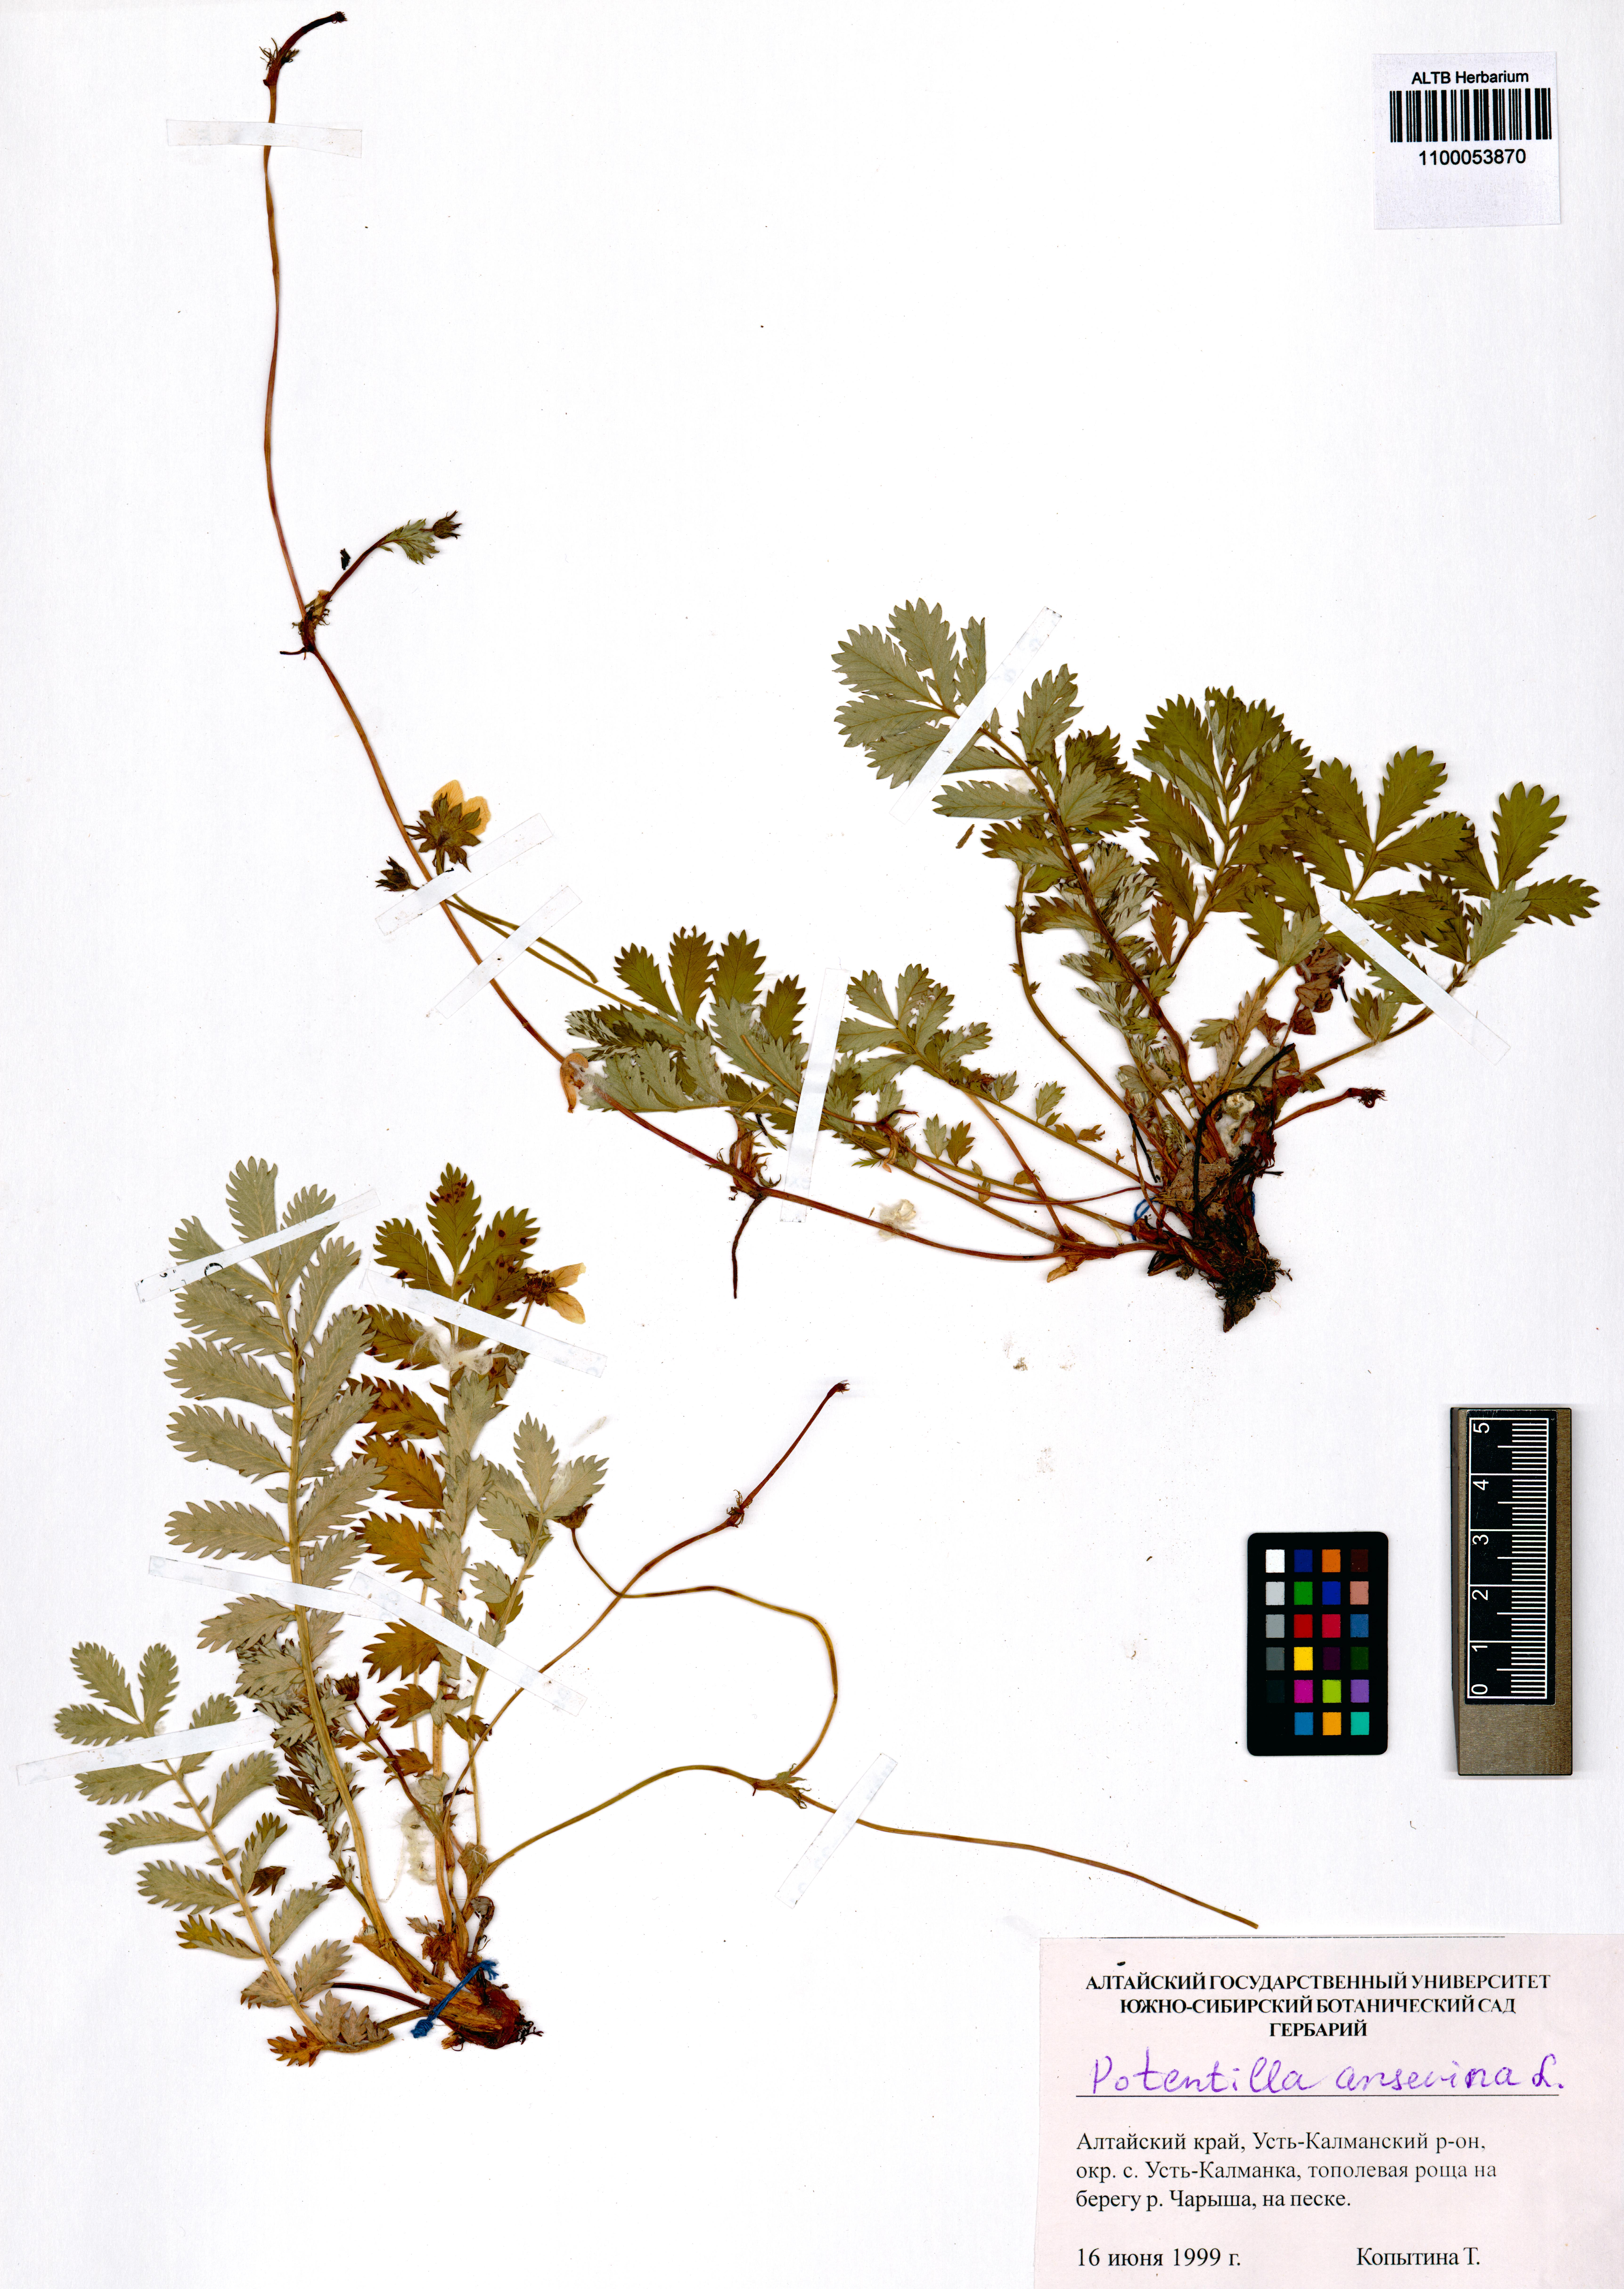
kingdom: Plantae
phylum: Tracheophyta
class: Magnoliopsida
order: Rosales
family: Rosaceae
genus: Argentina
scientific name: Argentina anserina
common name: Common silverweed
